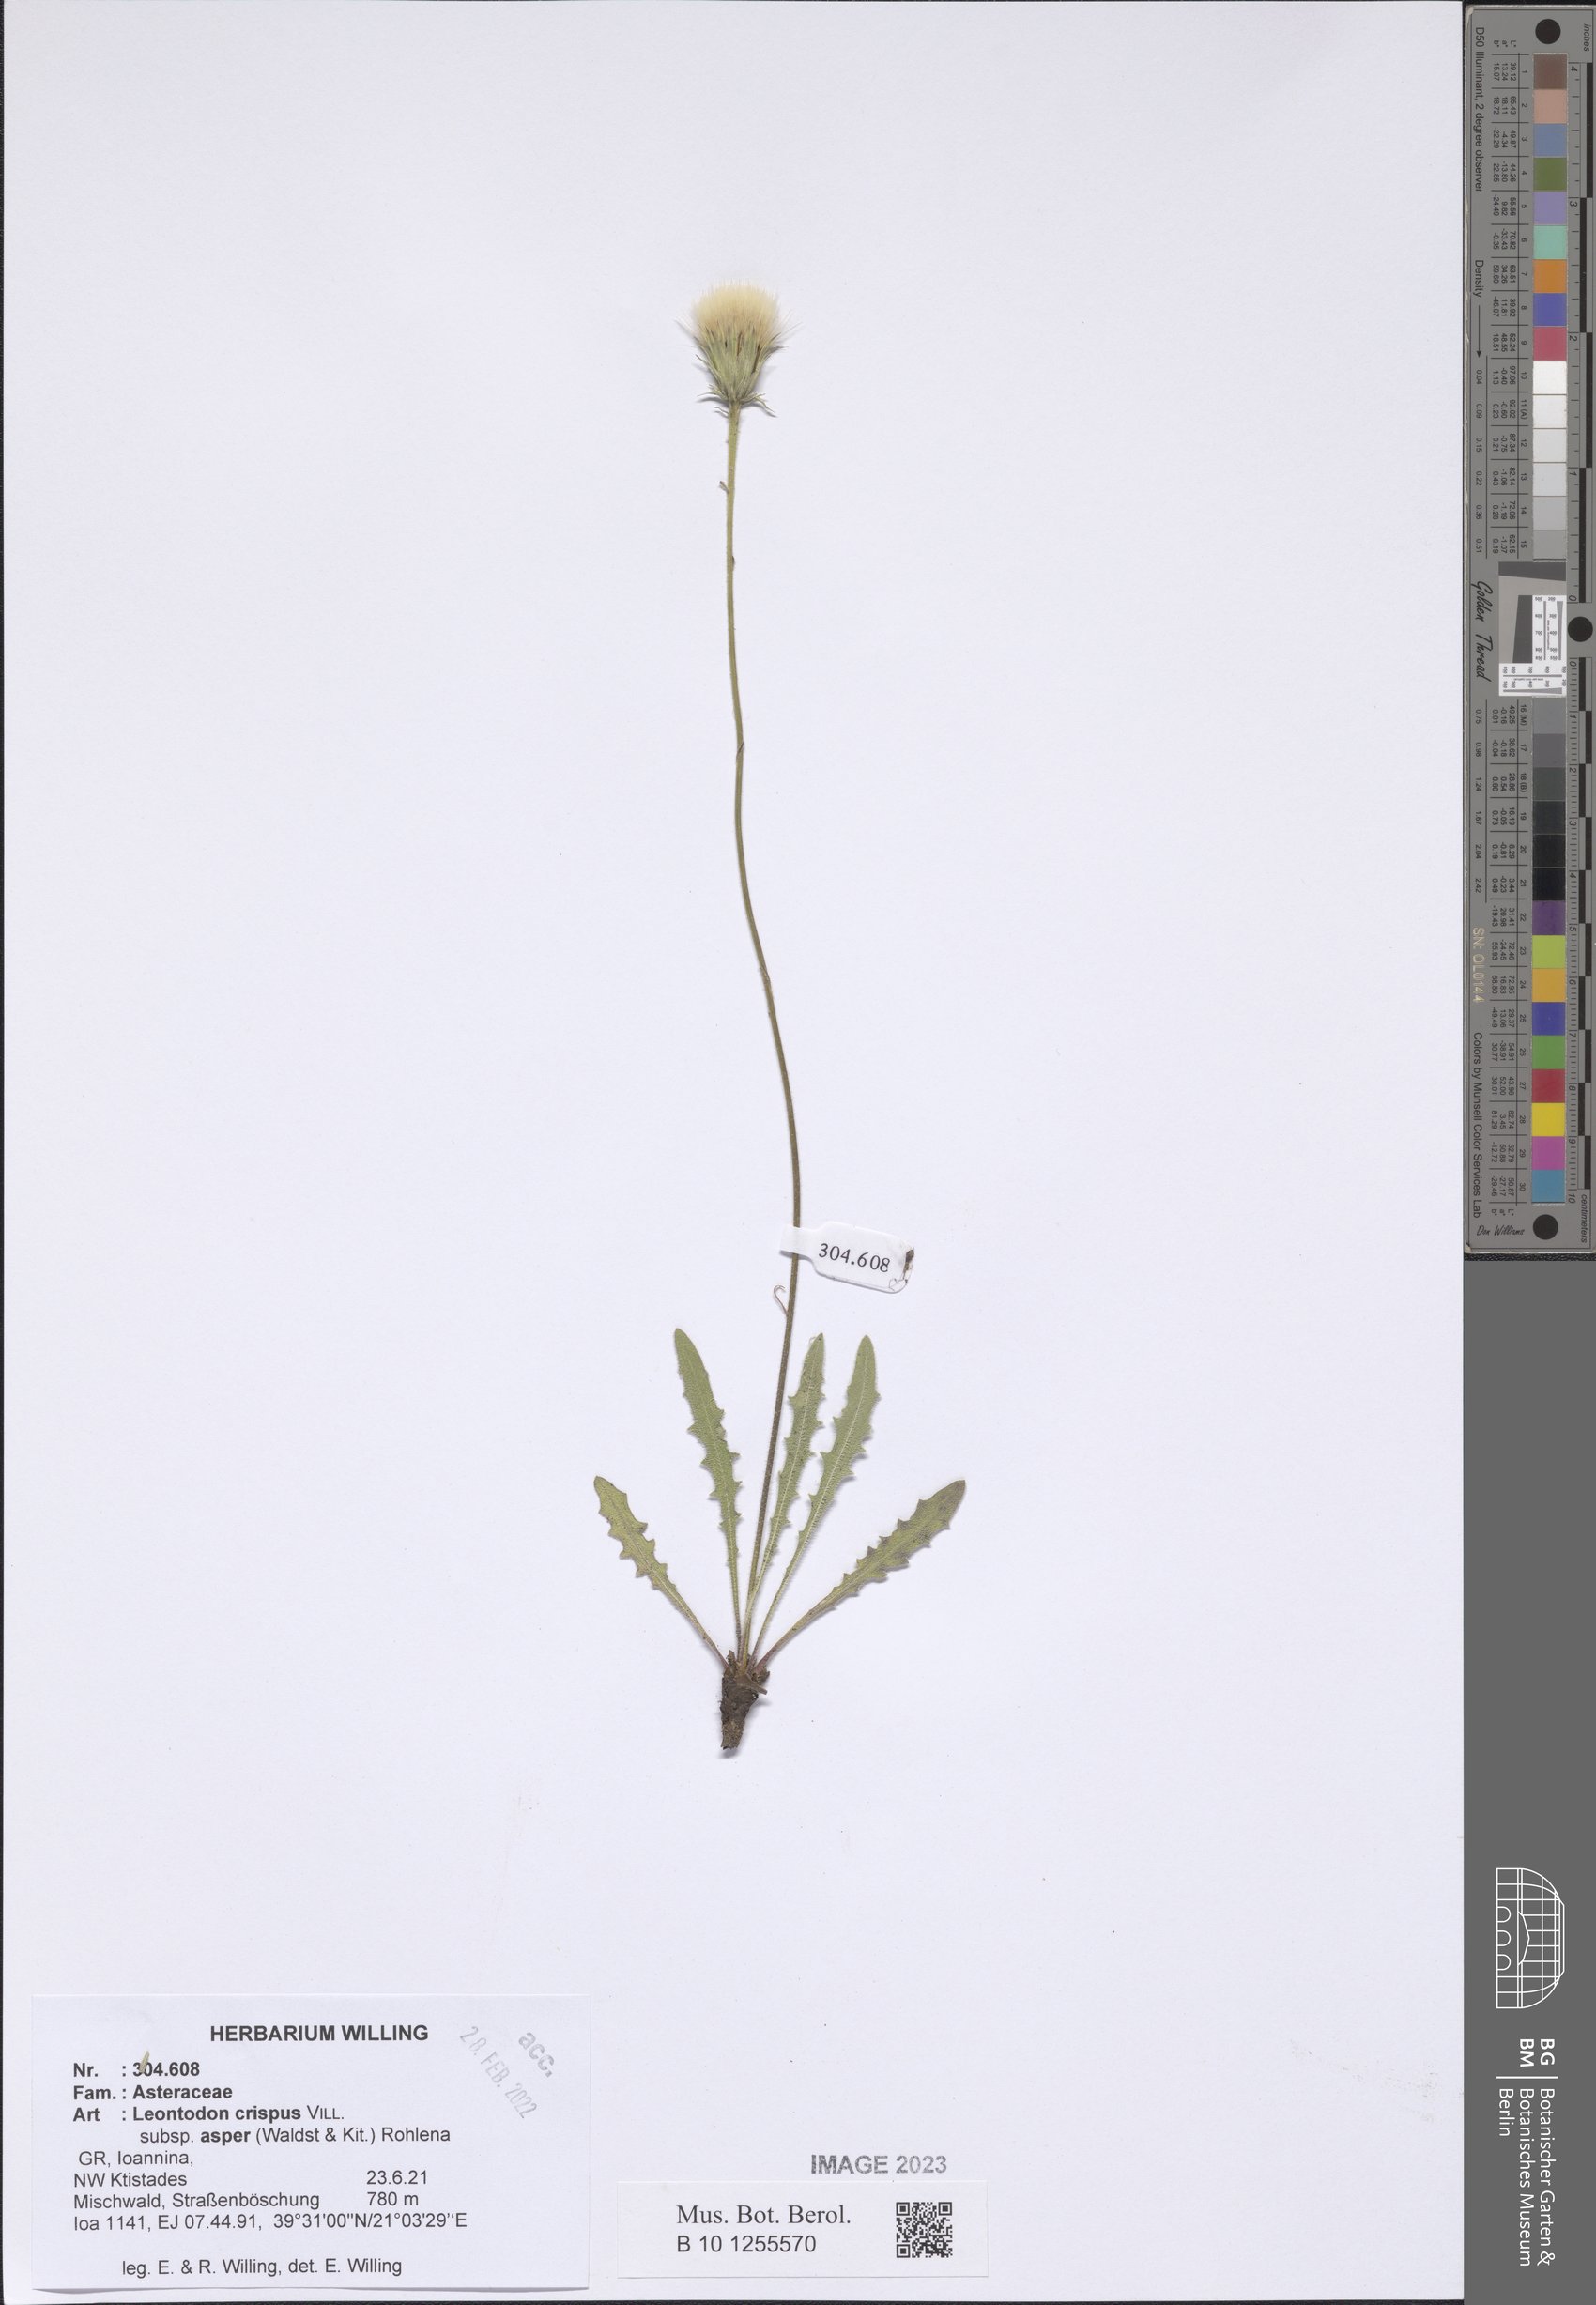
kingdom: Plantae
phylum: Tracheophyta
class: Magnoliopsida
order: Asterales
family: Asteraceae
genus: Leontodon
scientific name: Leontodon biscutellifolius
